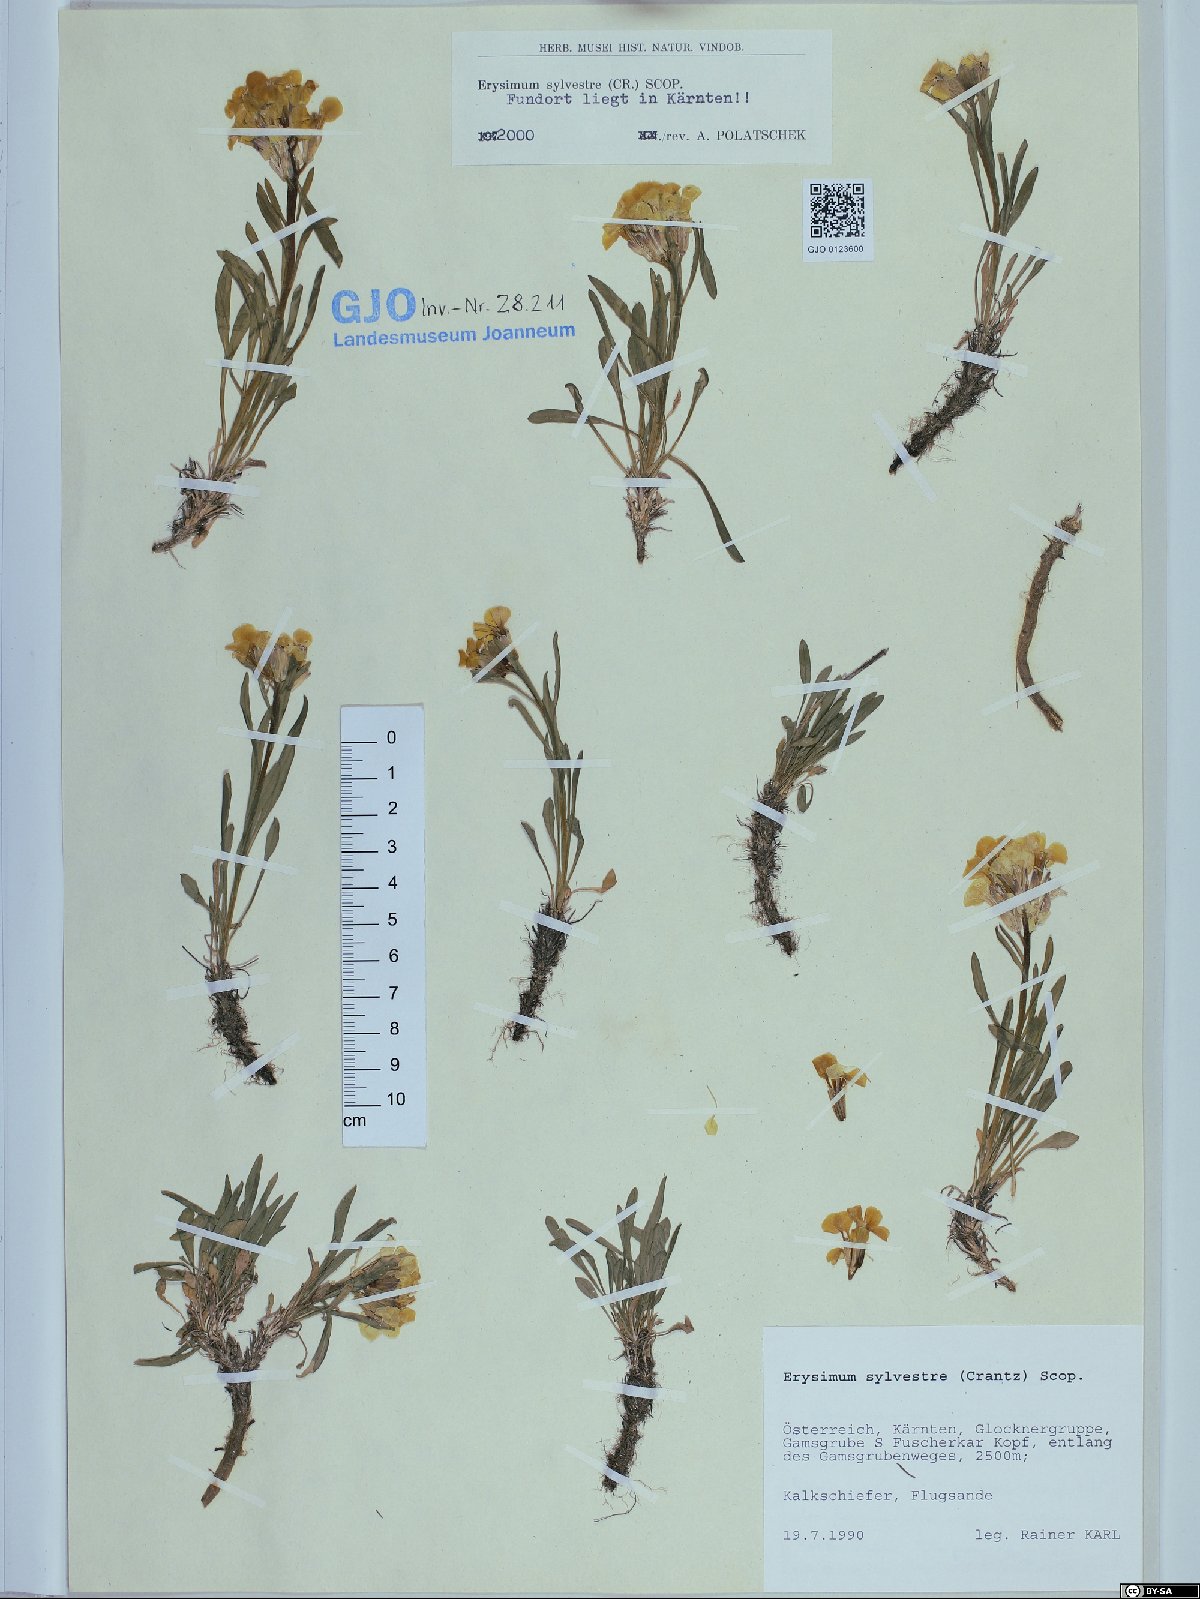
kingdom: Plantae
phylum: Tracheophyta
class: Magnoliopsida
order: Brassicales
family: Brassicaceae
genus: Erysimum
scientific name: Erysimum sylvestre
